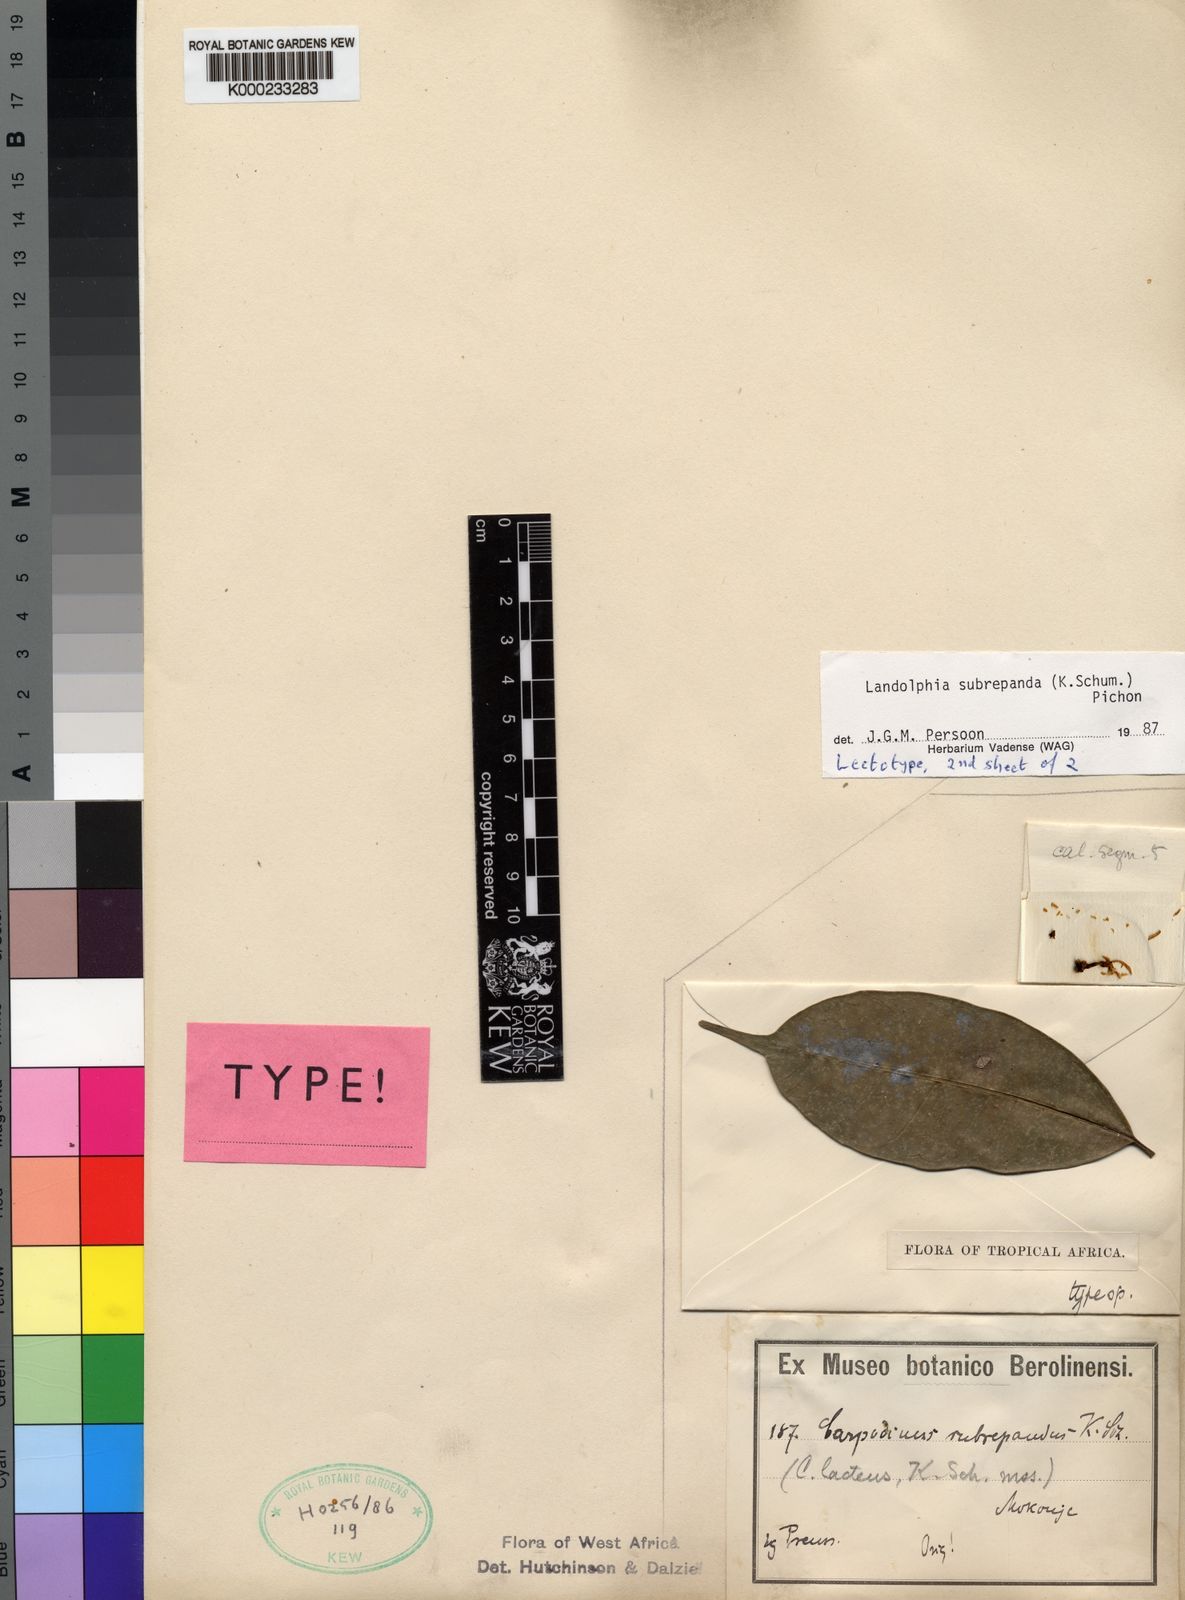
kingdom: Plantae
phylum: Tracheophyta
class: Magnoliopsida
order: Gentianales
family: Apocynaceae
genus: Landolphia
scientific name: Landolphia subrepanda
